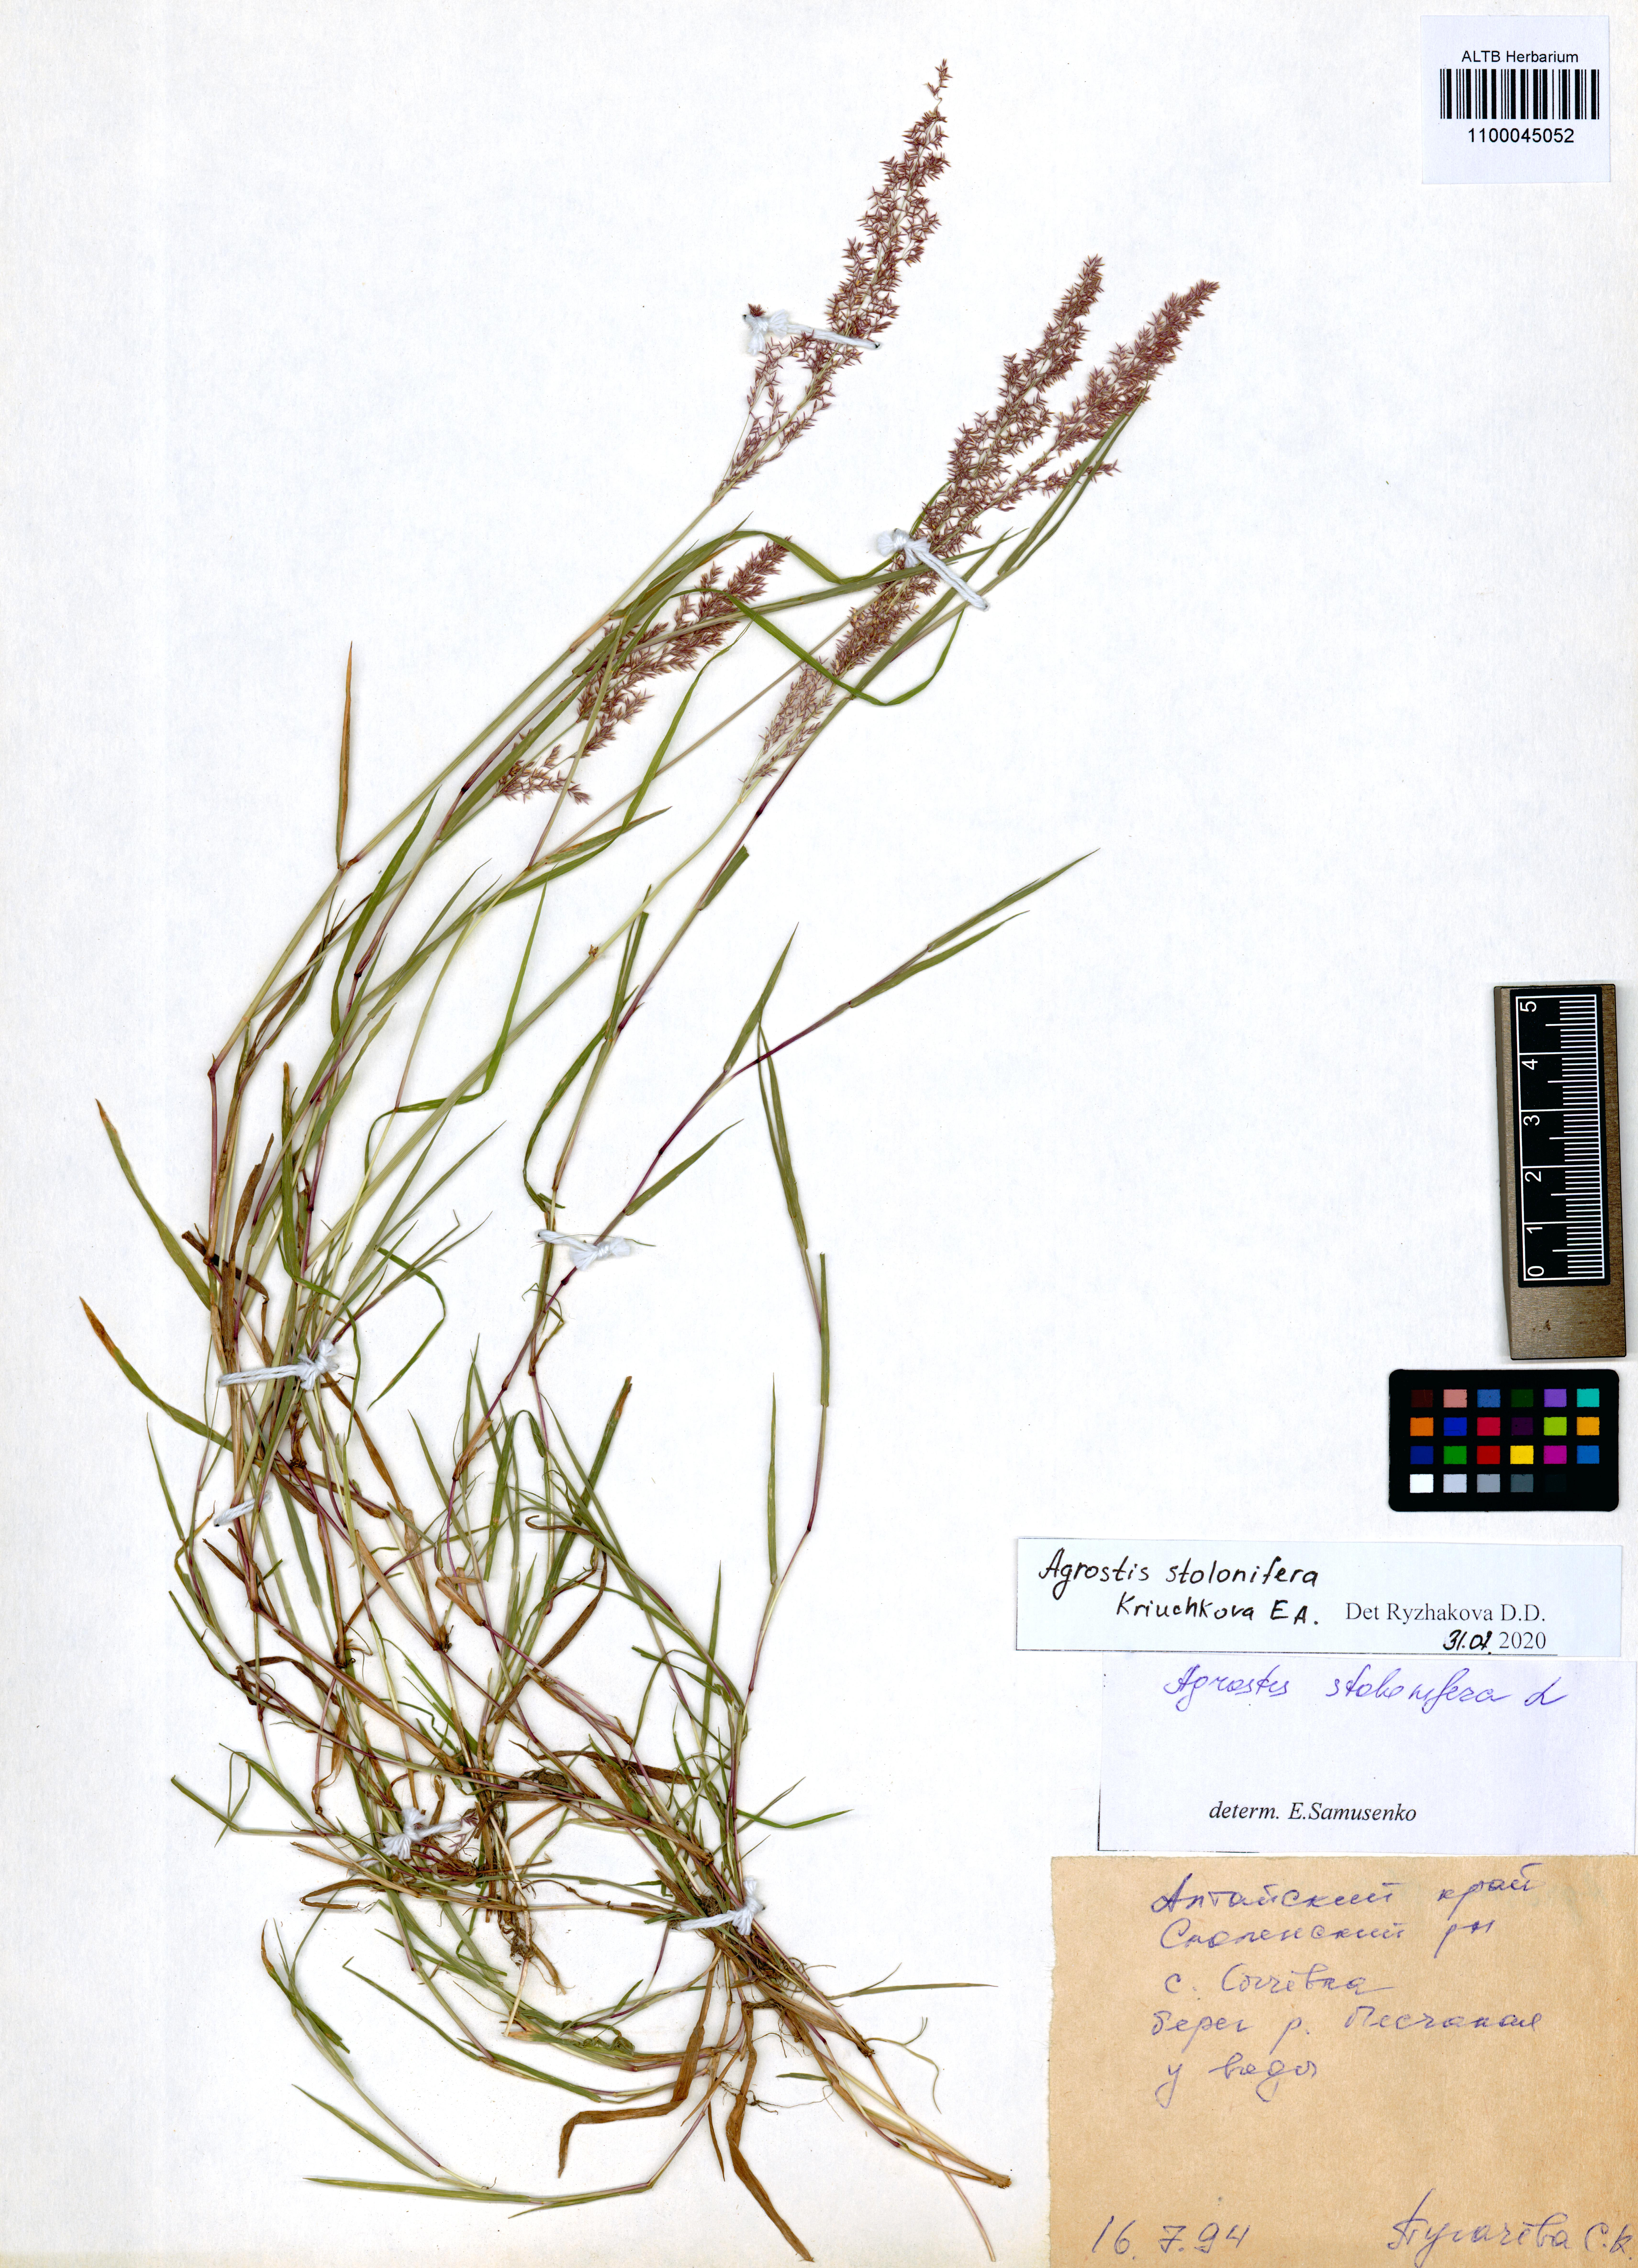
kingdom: Plantae
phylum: Tracheophyta
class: Liliopsida
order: Poales
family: Poaceae
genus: Agrostis
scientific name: Agrostis stolonifera
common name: Creeping bentgrass
